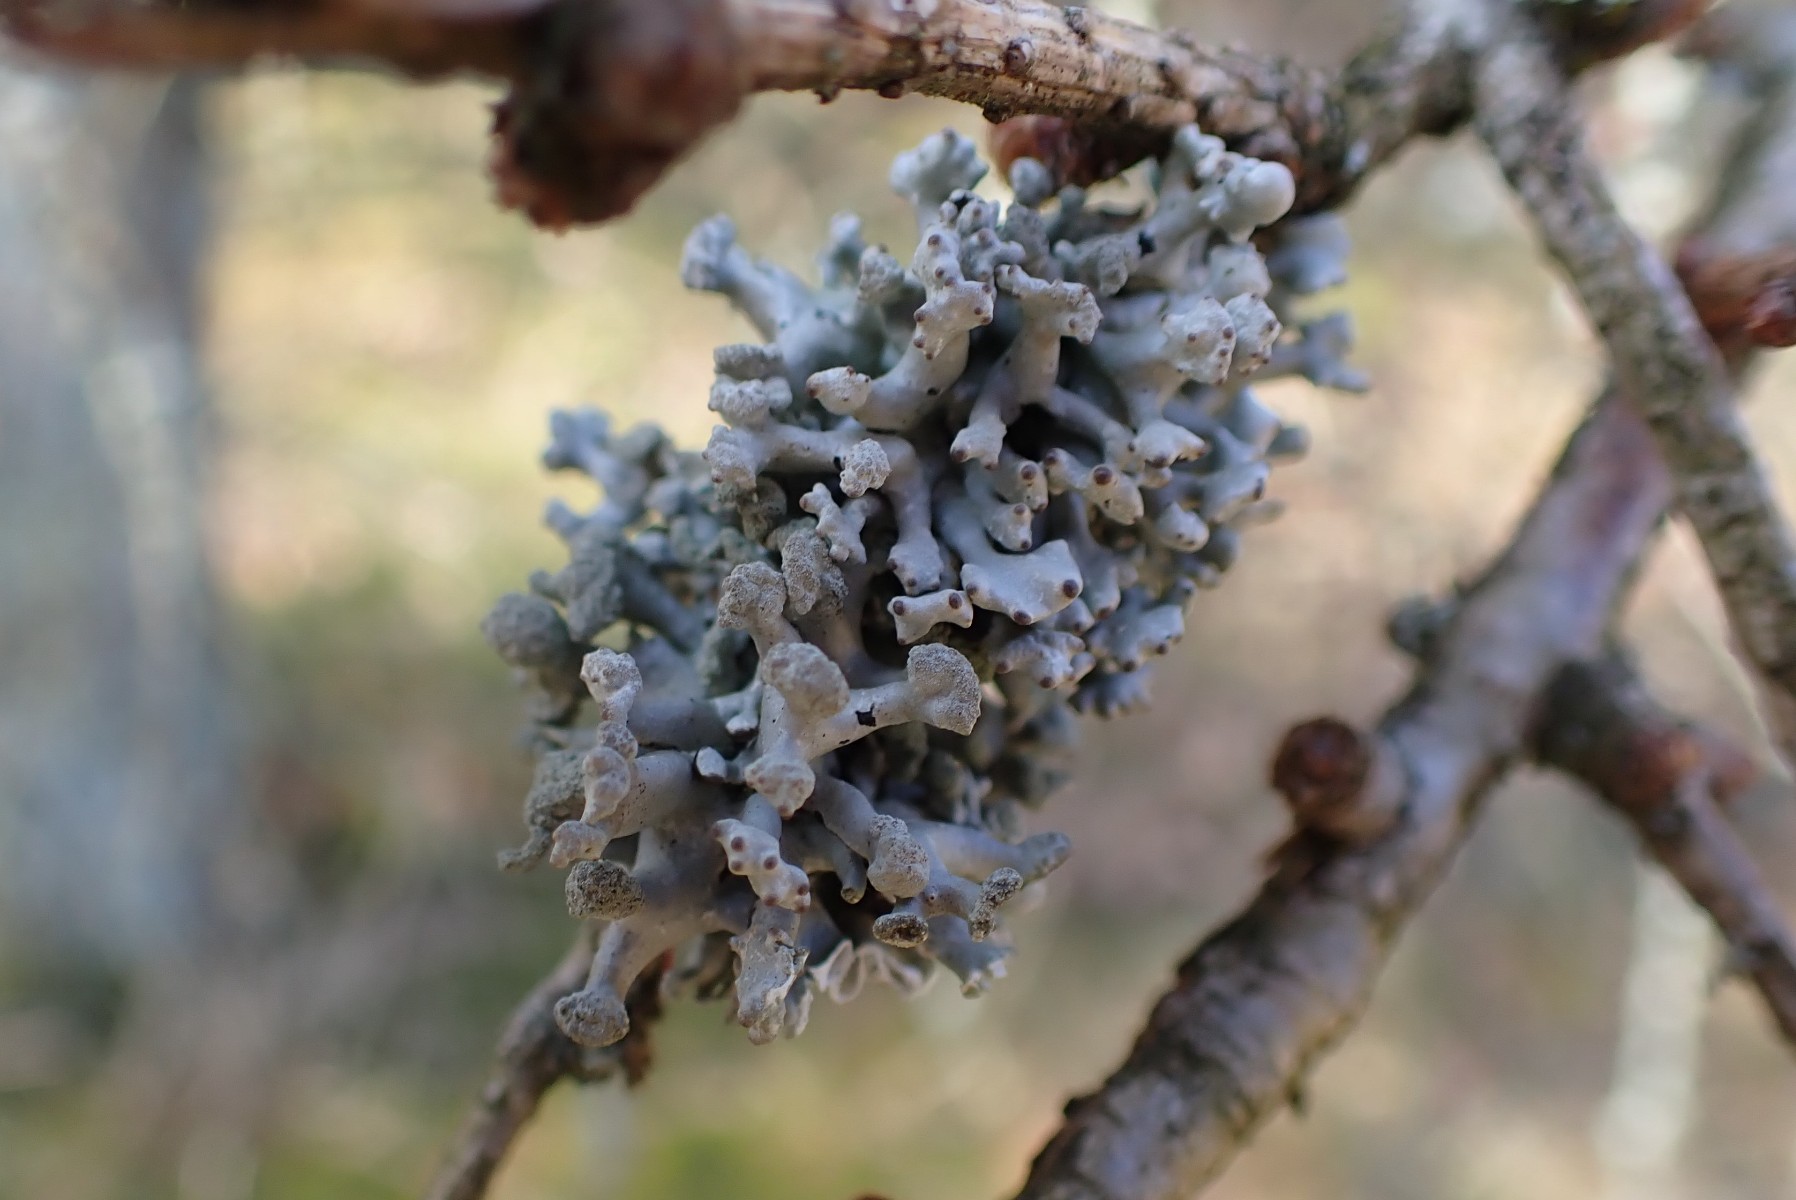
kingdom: Fungi
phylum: Ascomycota
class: Lecanoromycetes
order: Lecanorales
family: Parmeliaceae
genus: Hypogymnia
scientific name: Hypogymnia tubulosa
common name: finger-kvistlav
